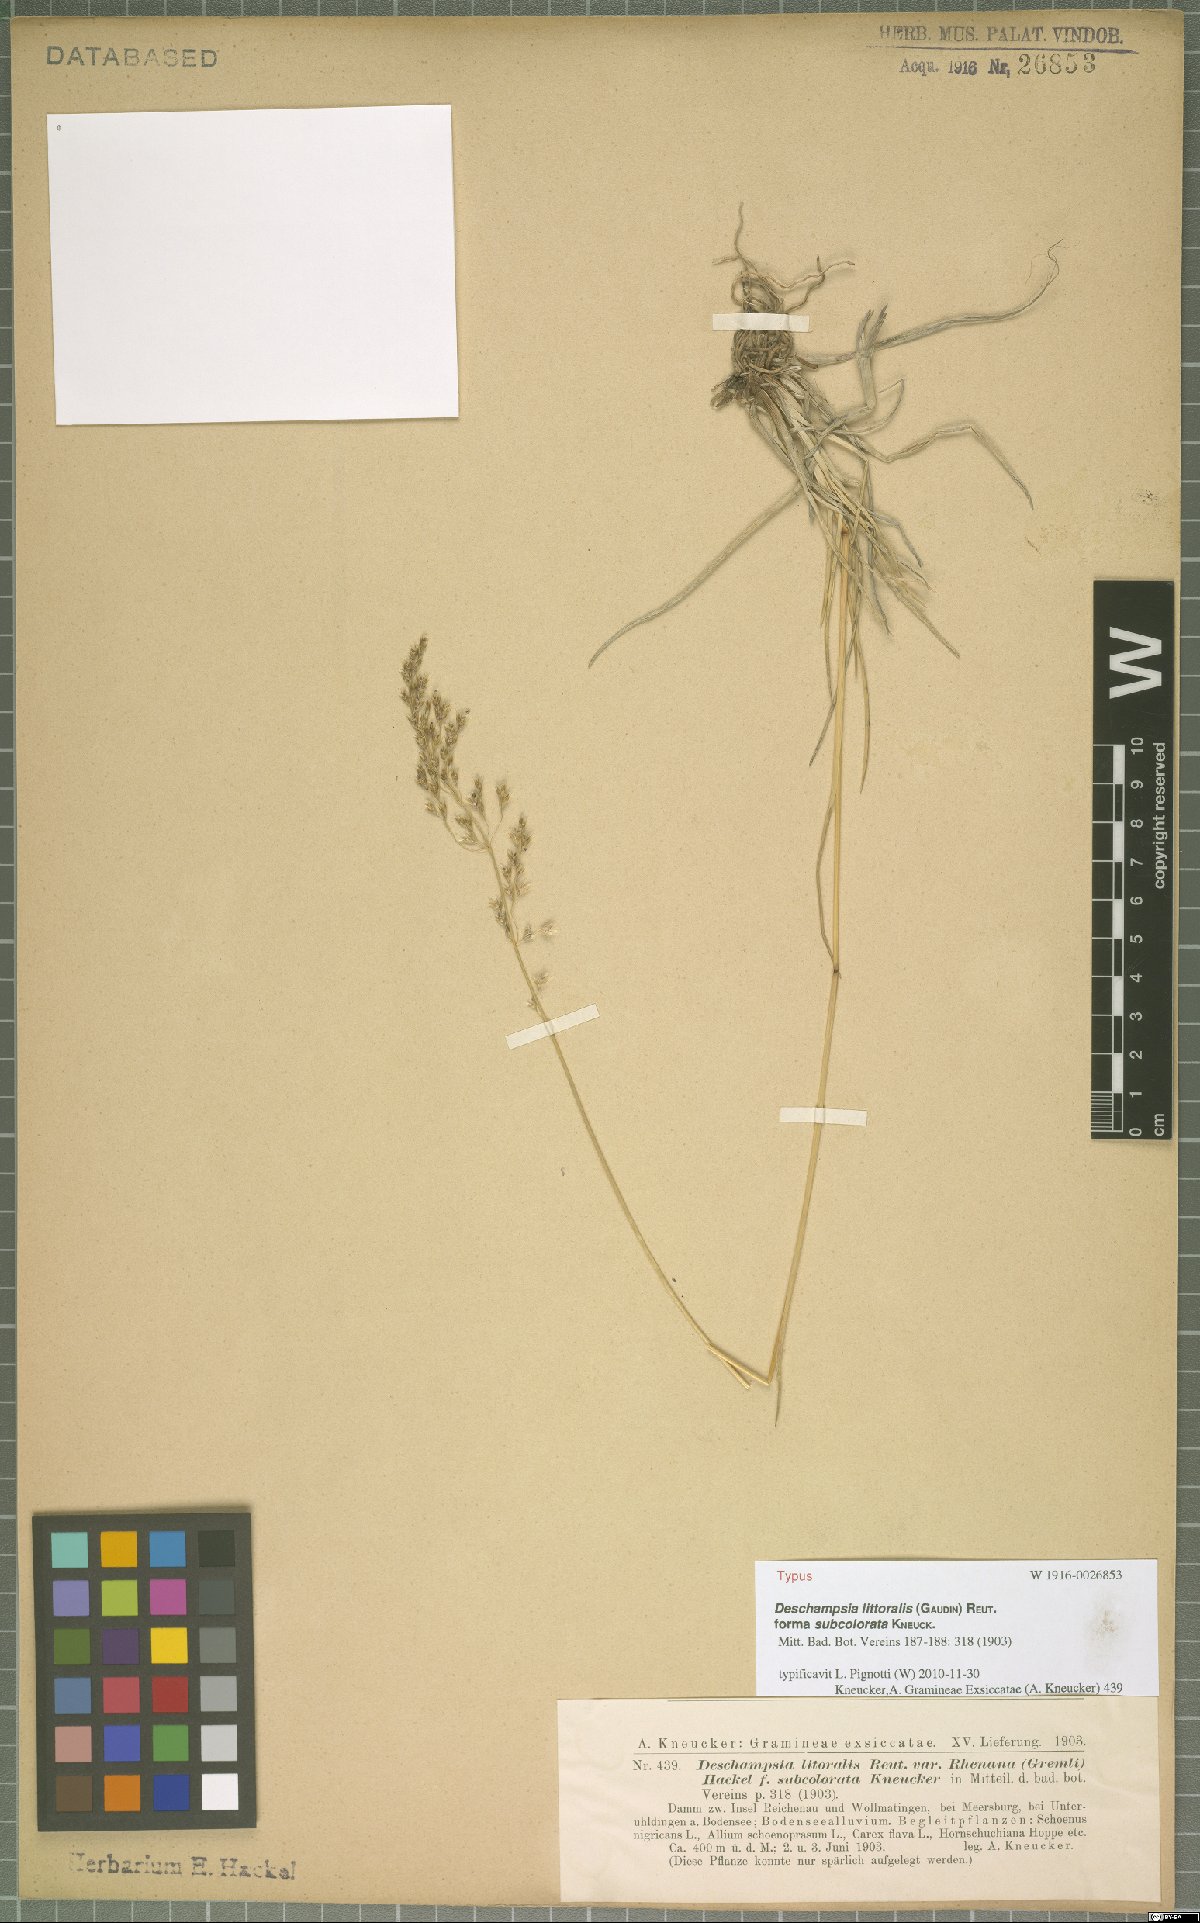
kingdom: Plantae
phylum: Tracheophyta
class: Liliopsida
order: Poales
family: Poaceae
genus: Deschampsia
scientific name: Deschampsia cespitosa
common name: Tufted hair-grass
